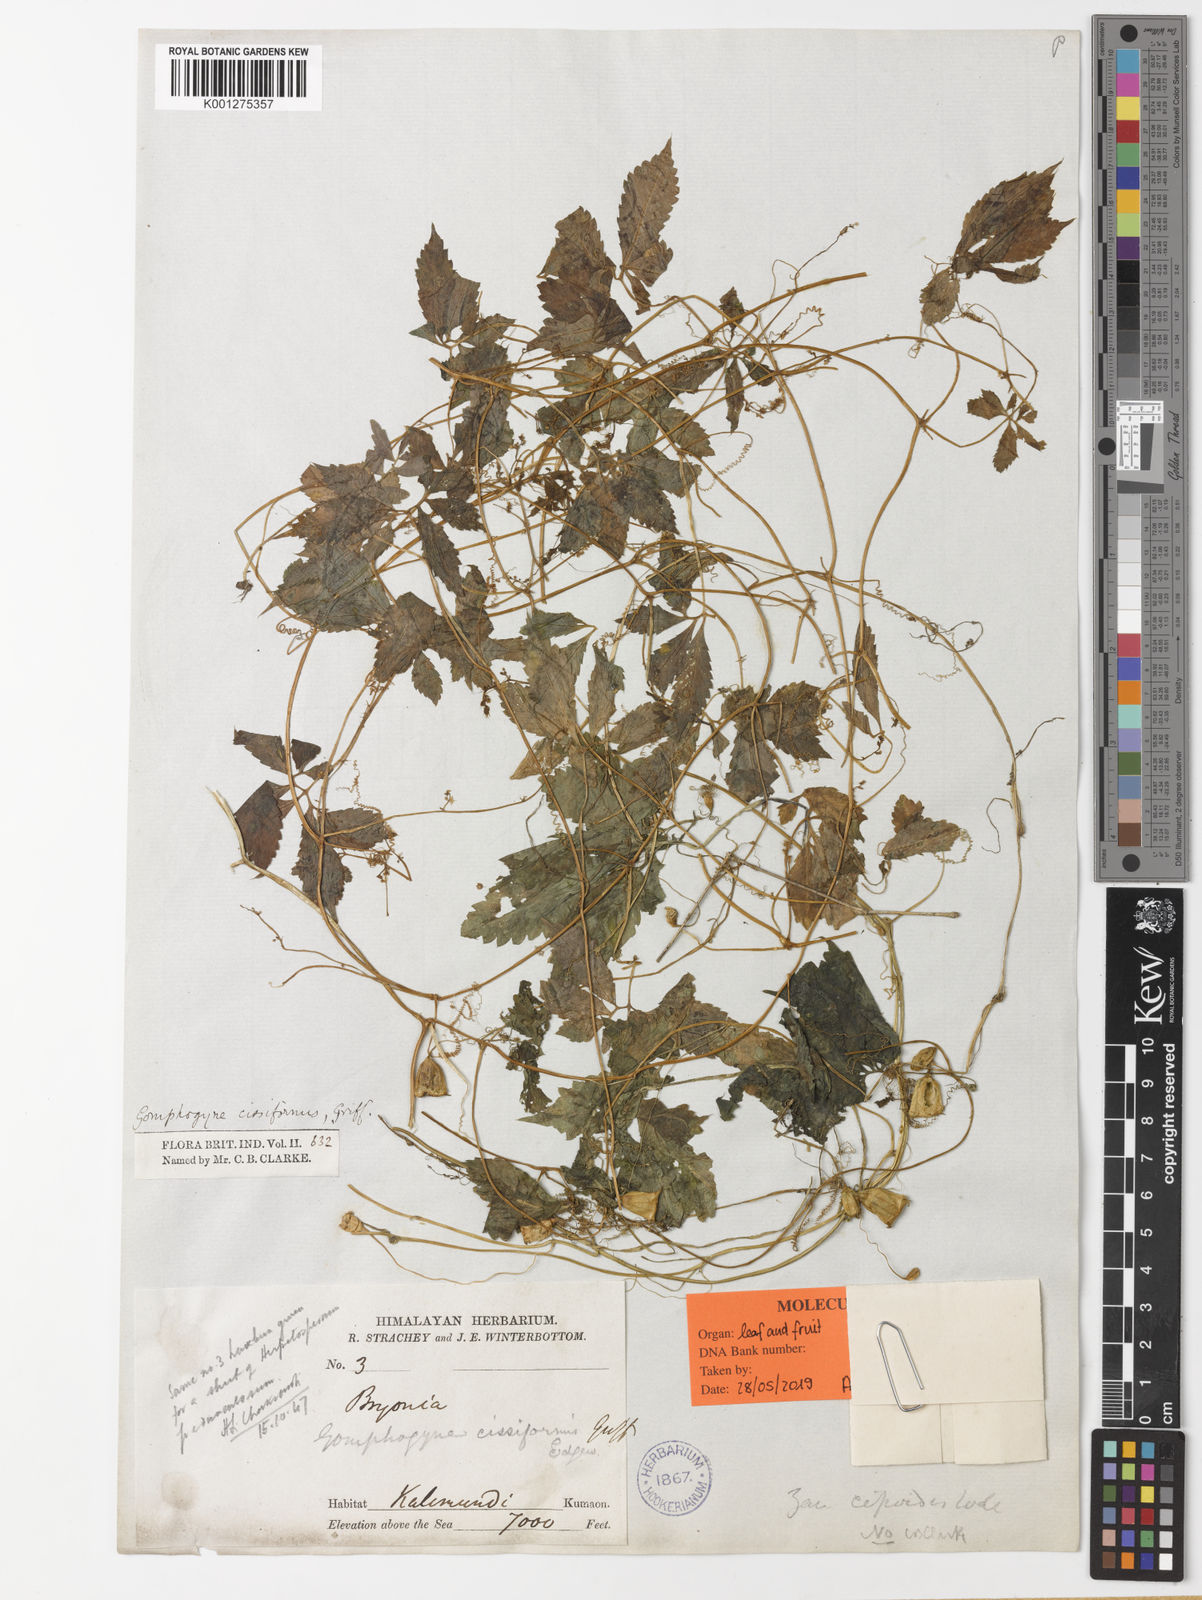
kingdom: Plantae
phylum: Tracheophyta
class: Magnoliopsida
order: Cucurbitales
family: Cucurbitaceae
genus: Gomphogyne
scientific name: Gomphogyne cissiformis
